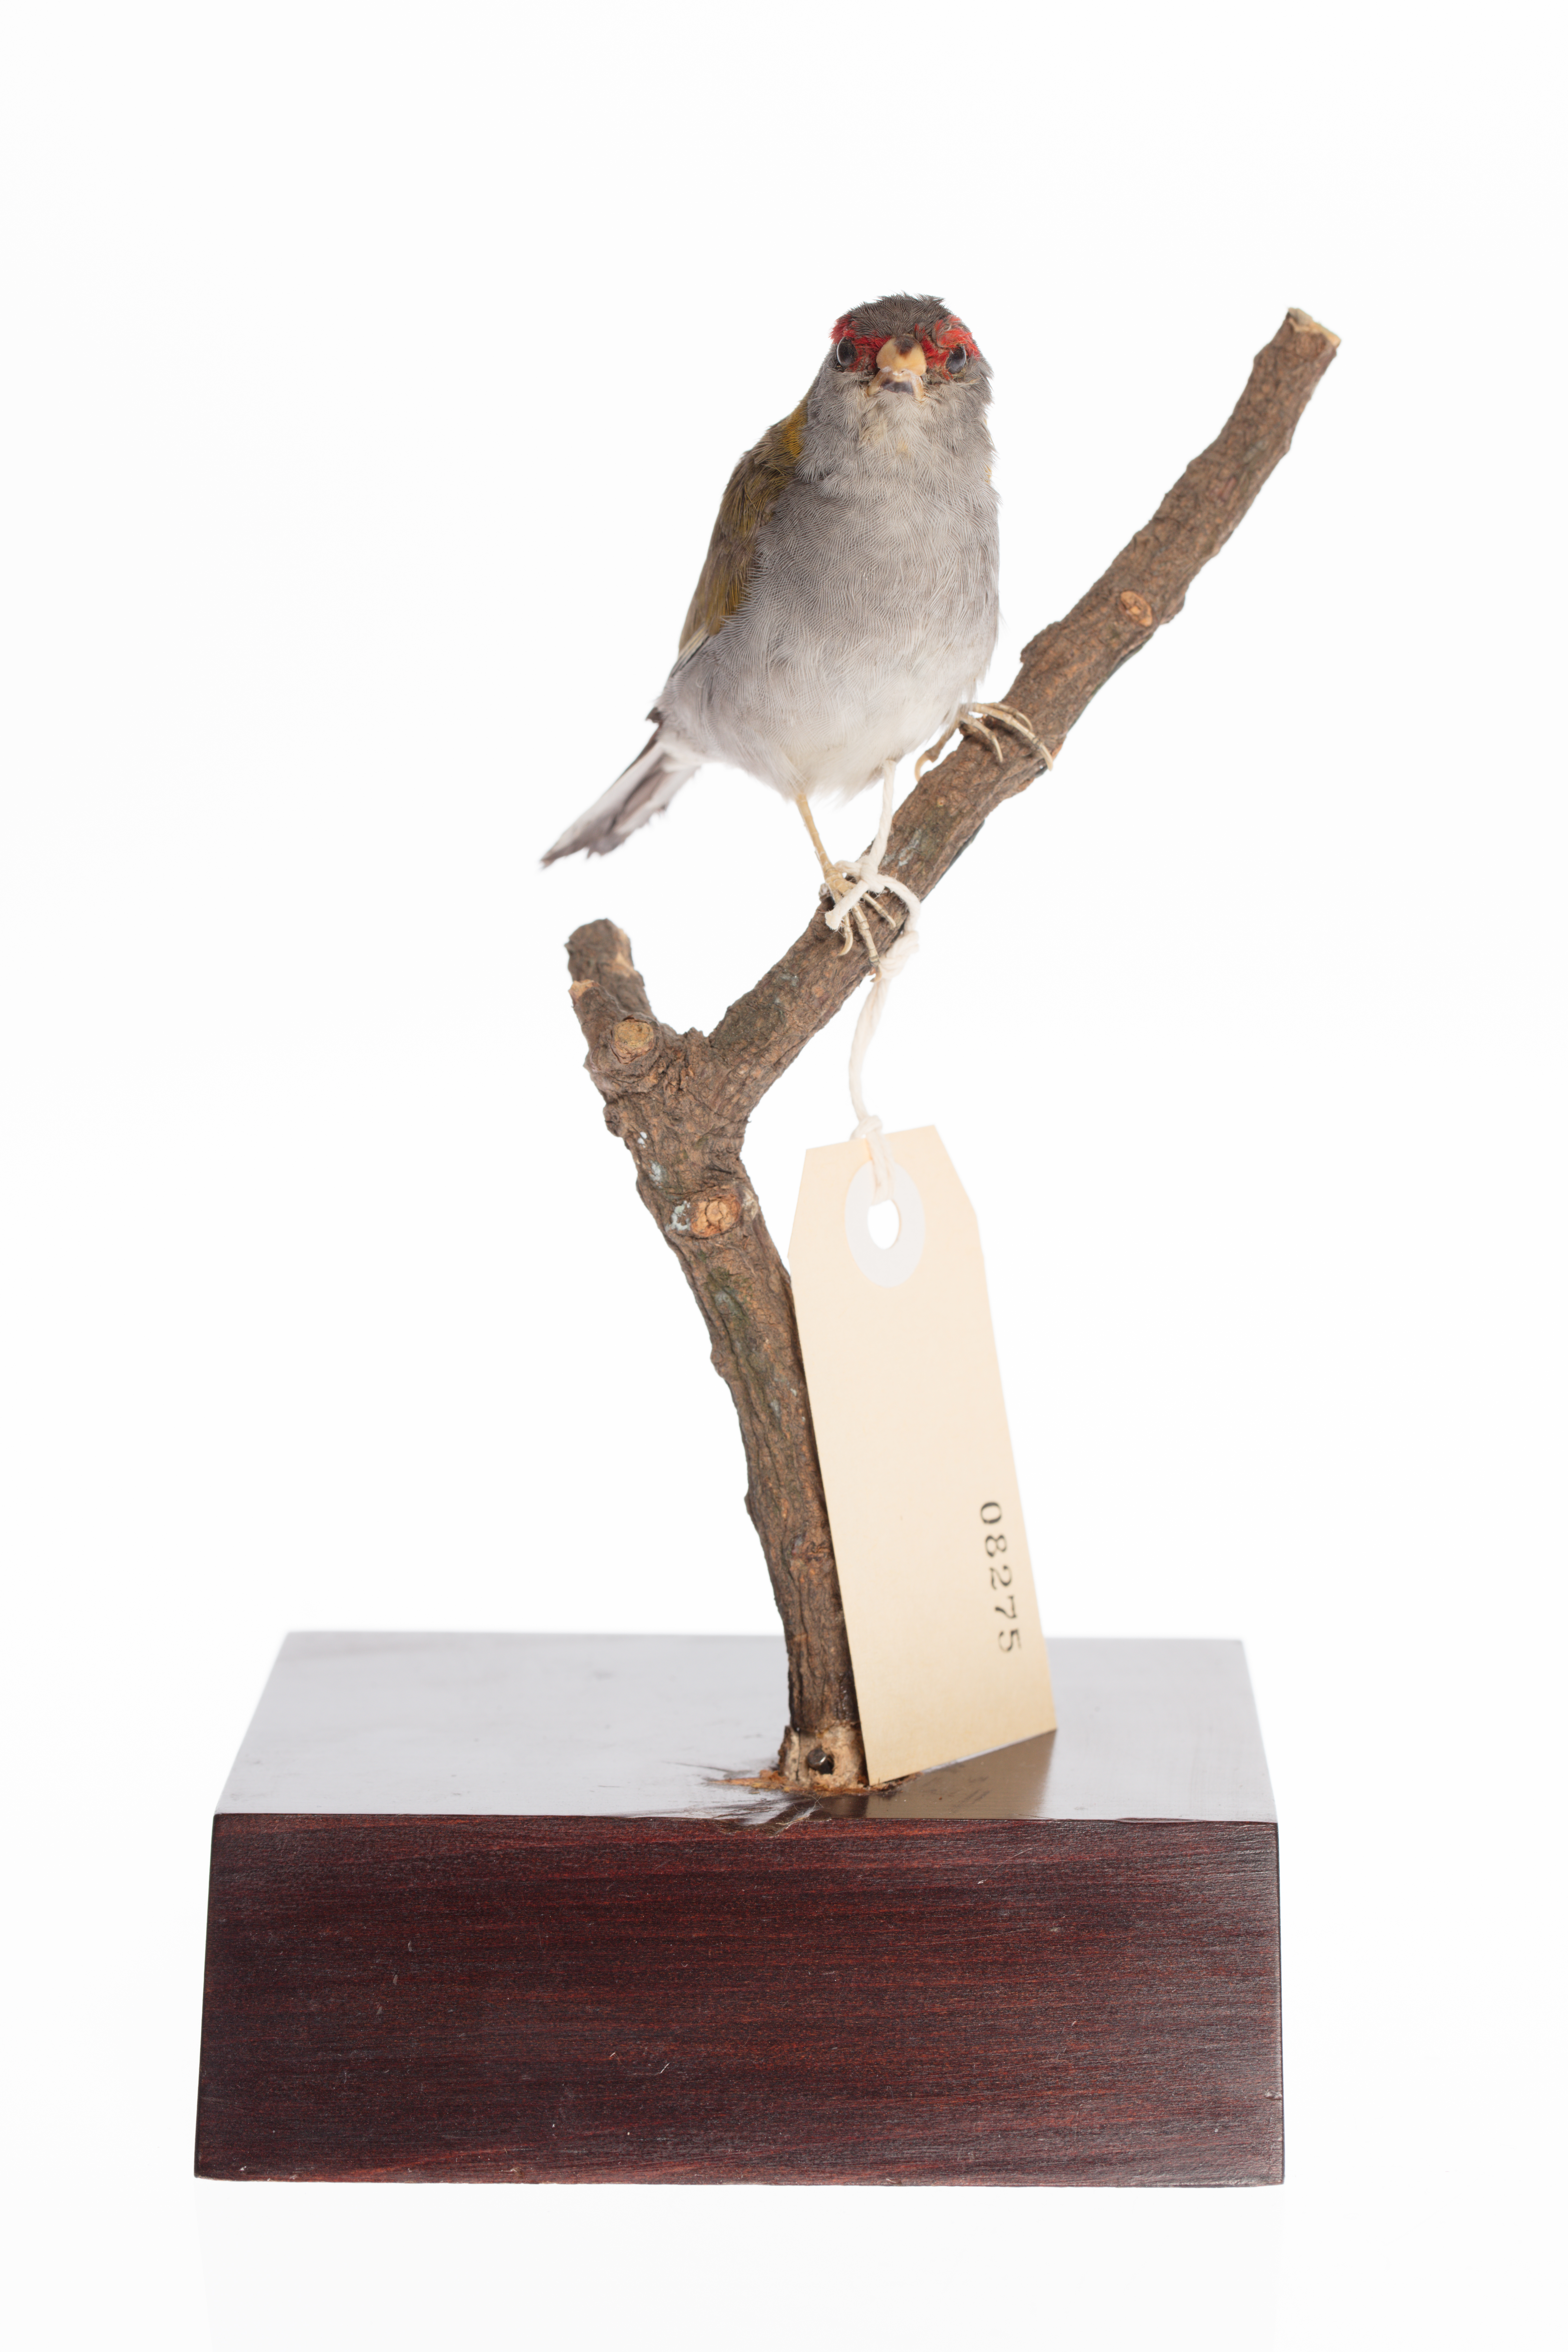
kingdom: Animalia
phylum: Chordata
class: Aves
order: Passeriformes
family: Estrildidae
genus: Neochmia
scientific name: Neochmia Aegintha temporalis
